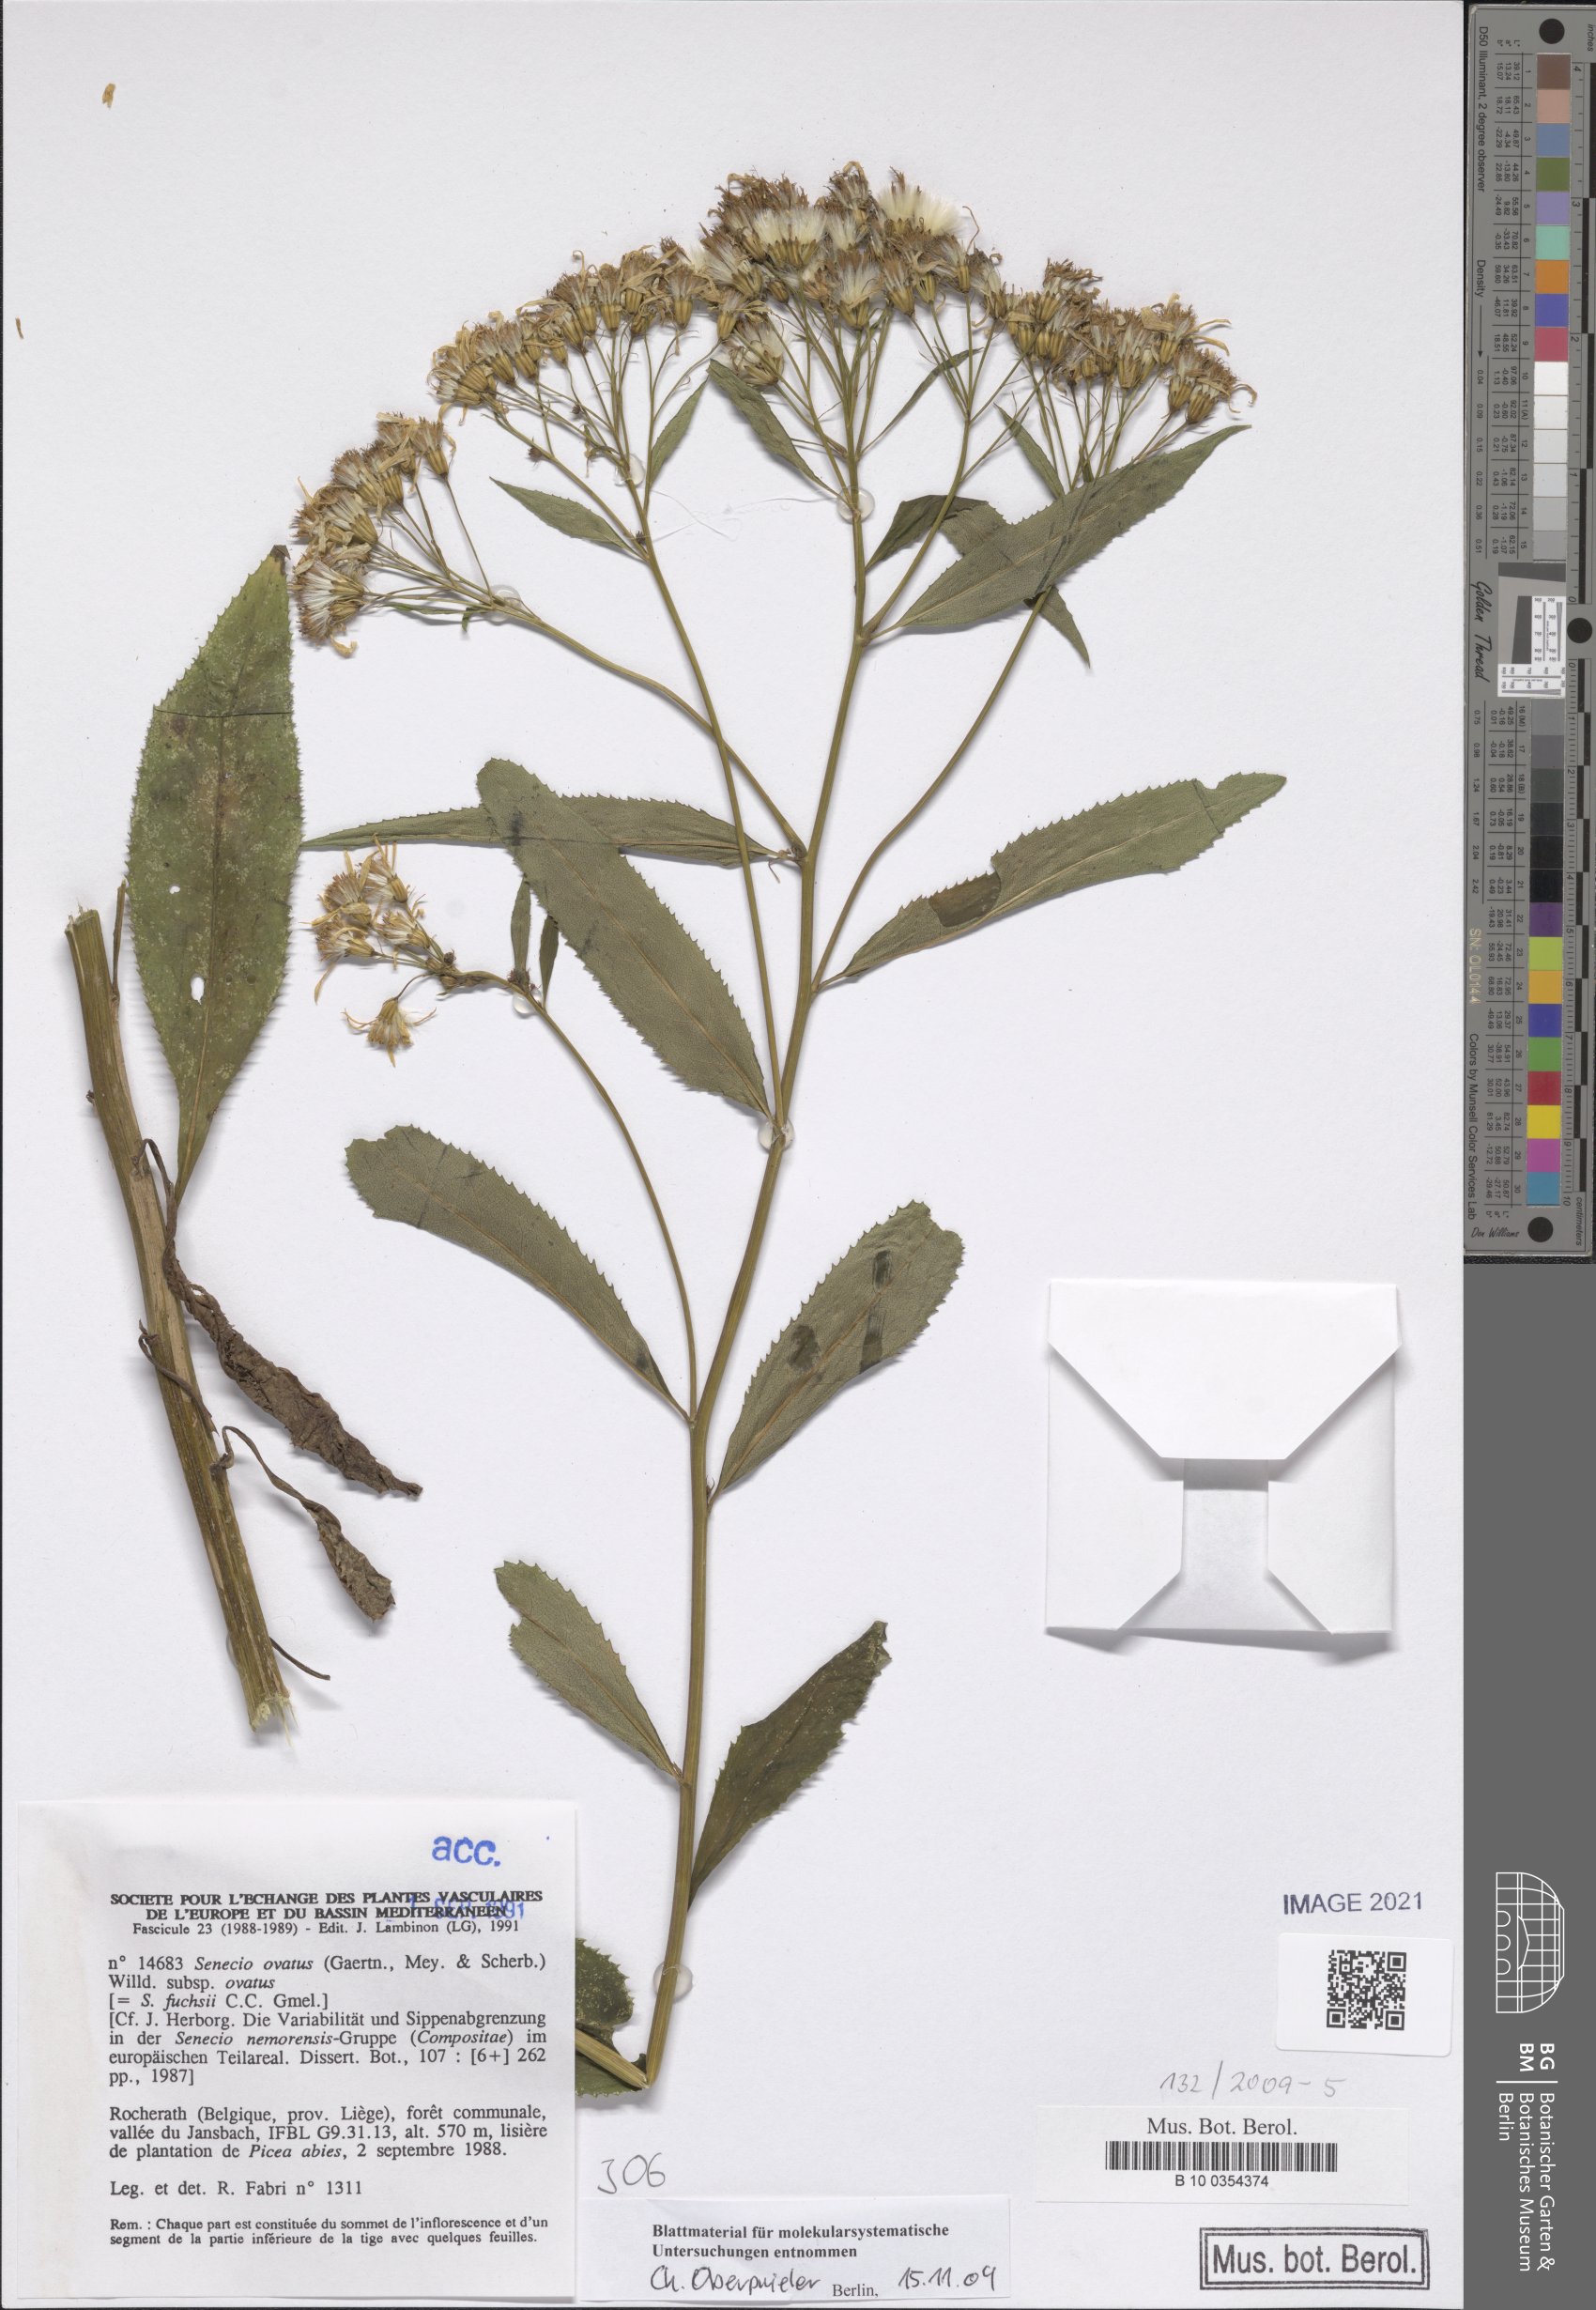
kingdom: Plantae
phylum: Tracheophyta
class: Magnoliopsida
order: Asterales
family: Asteraceae
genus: Senecio
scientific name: Senecio ovatus
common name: Wood ragwort
